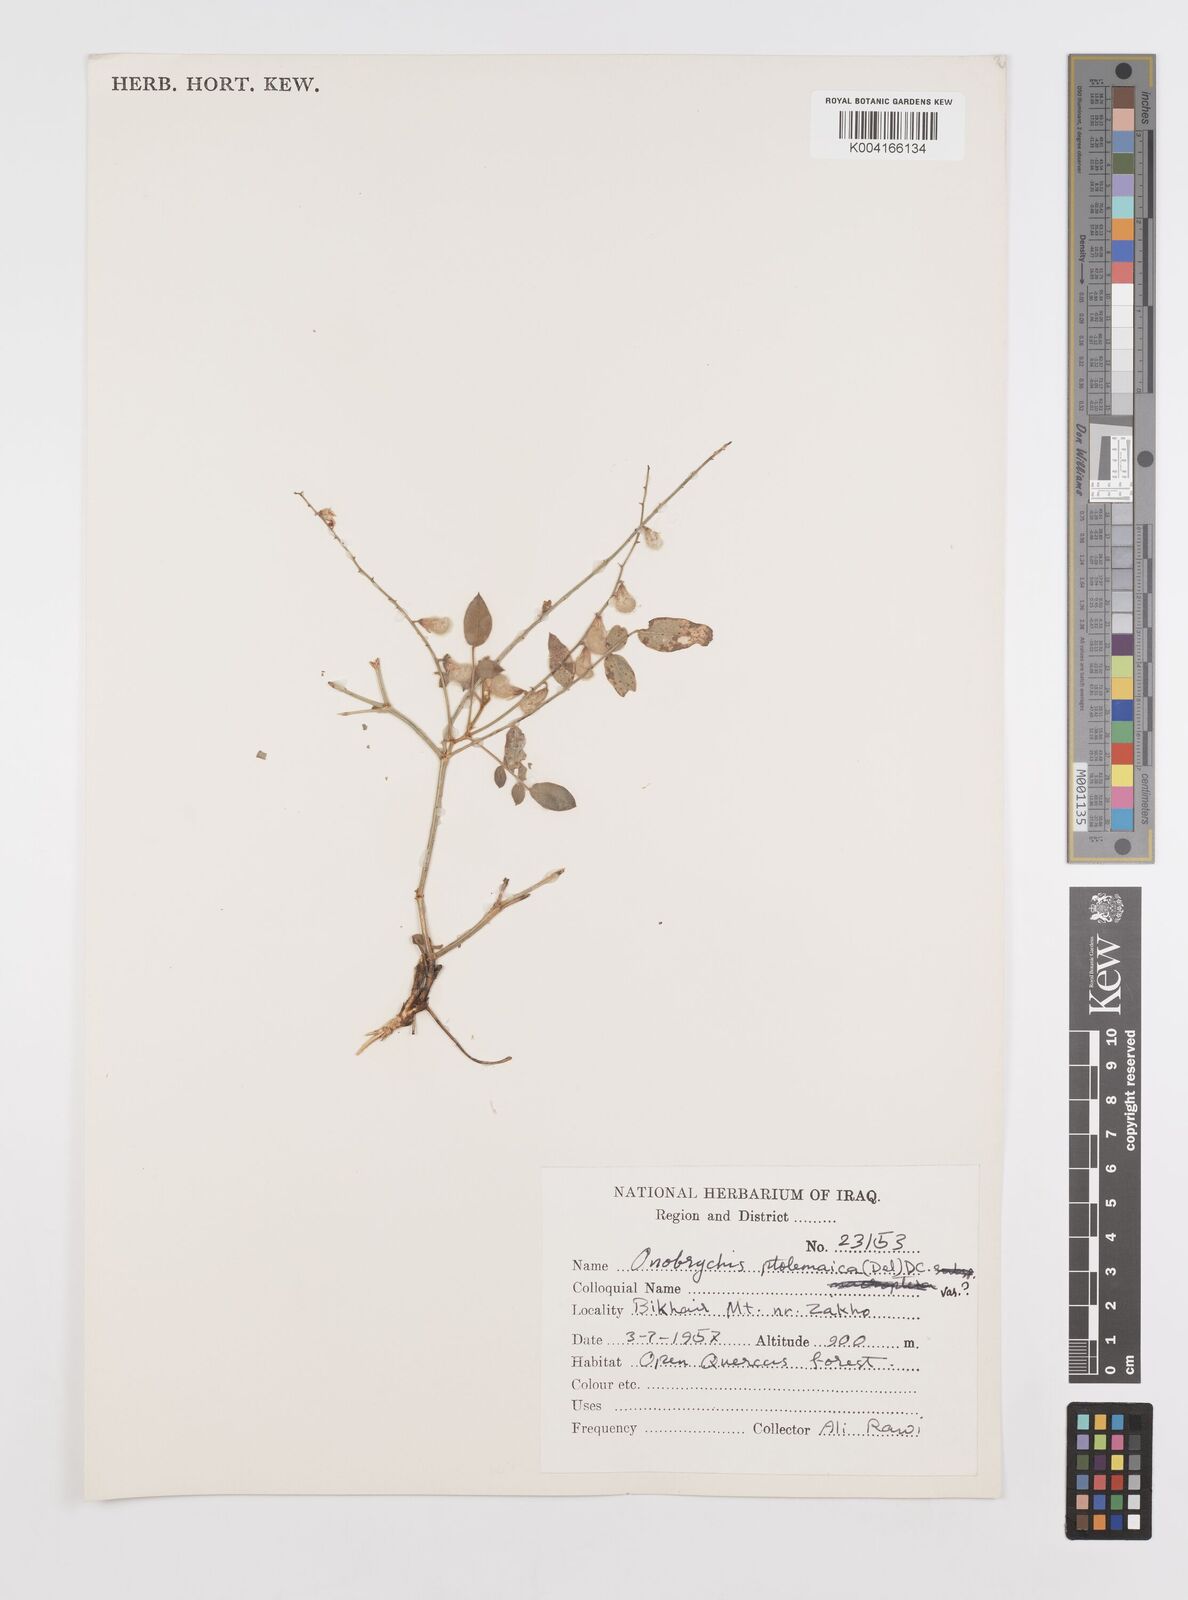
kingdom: Plantae
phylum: Tracheophyta
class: Magnoliopsida
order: Fabales
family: Fabaceae
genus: Onobrychis
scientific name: Onobrychis ptolemaica
